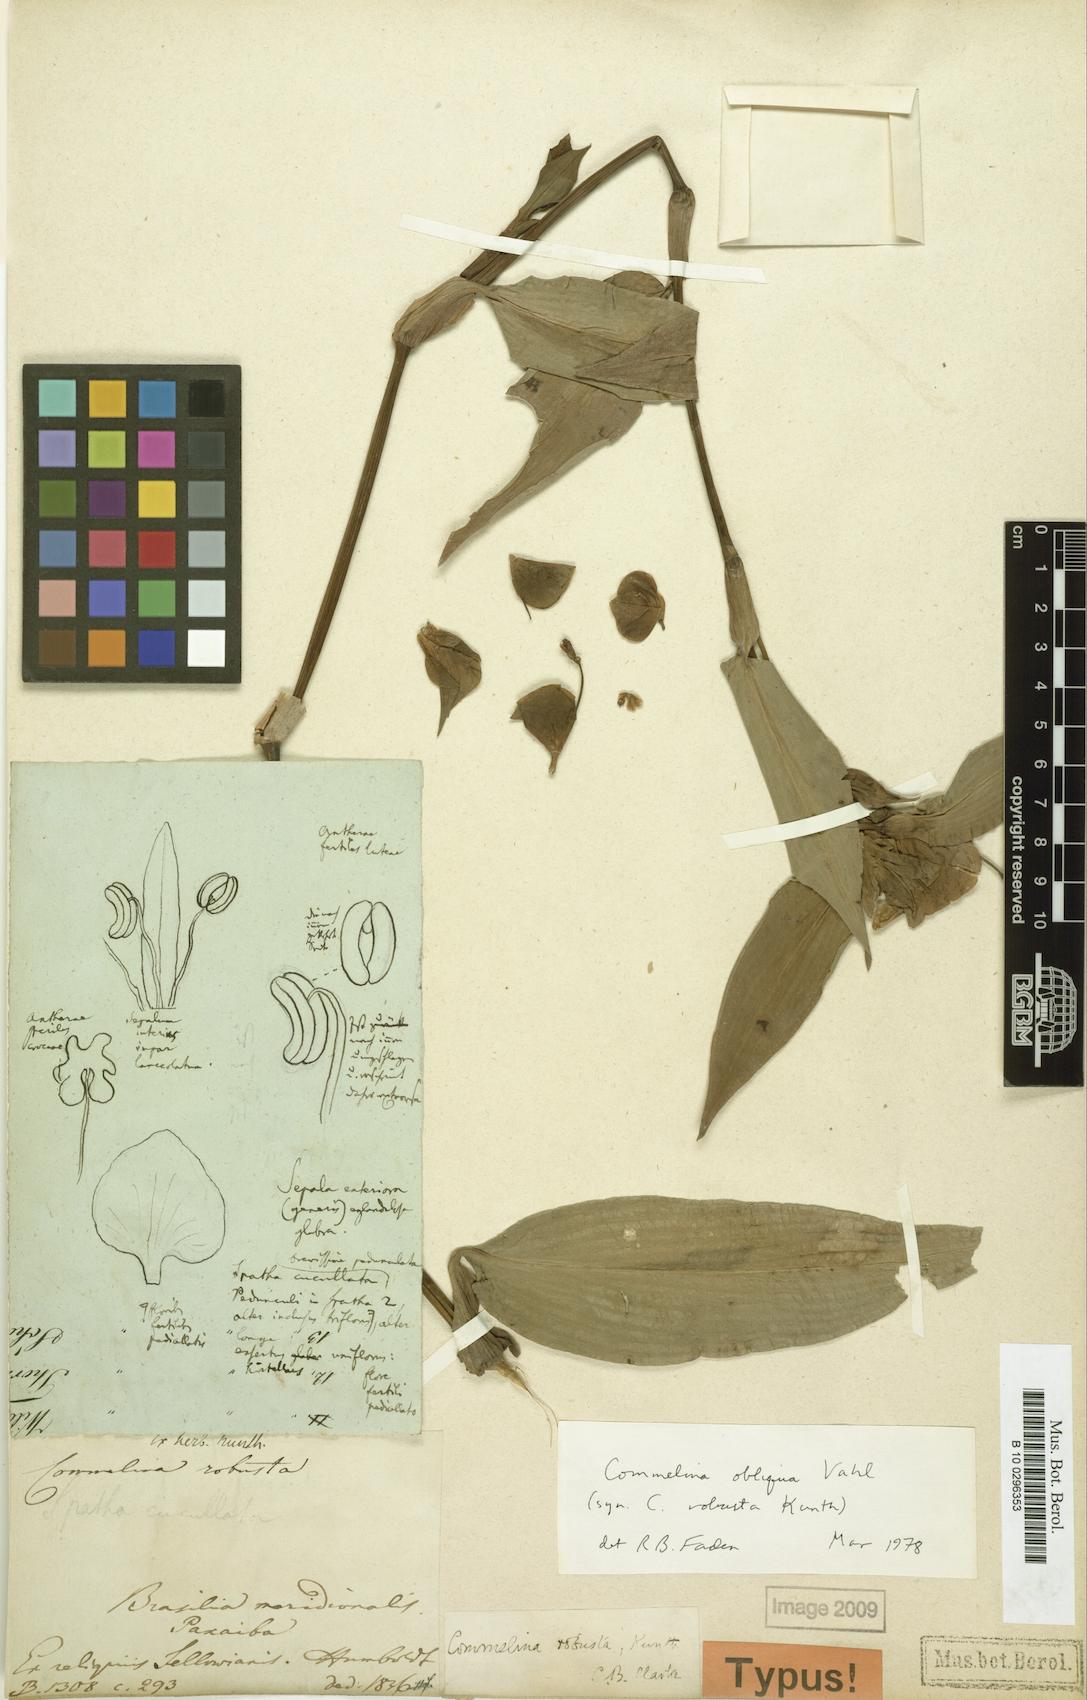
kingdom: Plantae
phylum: Tracheophyta
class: Liliopsida
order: Commelinales
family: Commelinaceae
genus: Commelina
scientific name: Commelina obliqua
